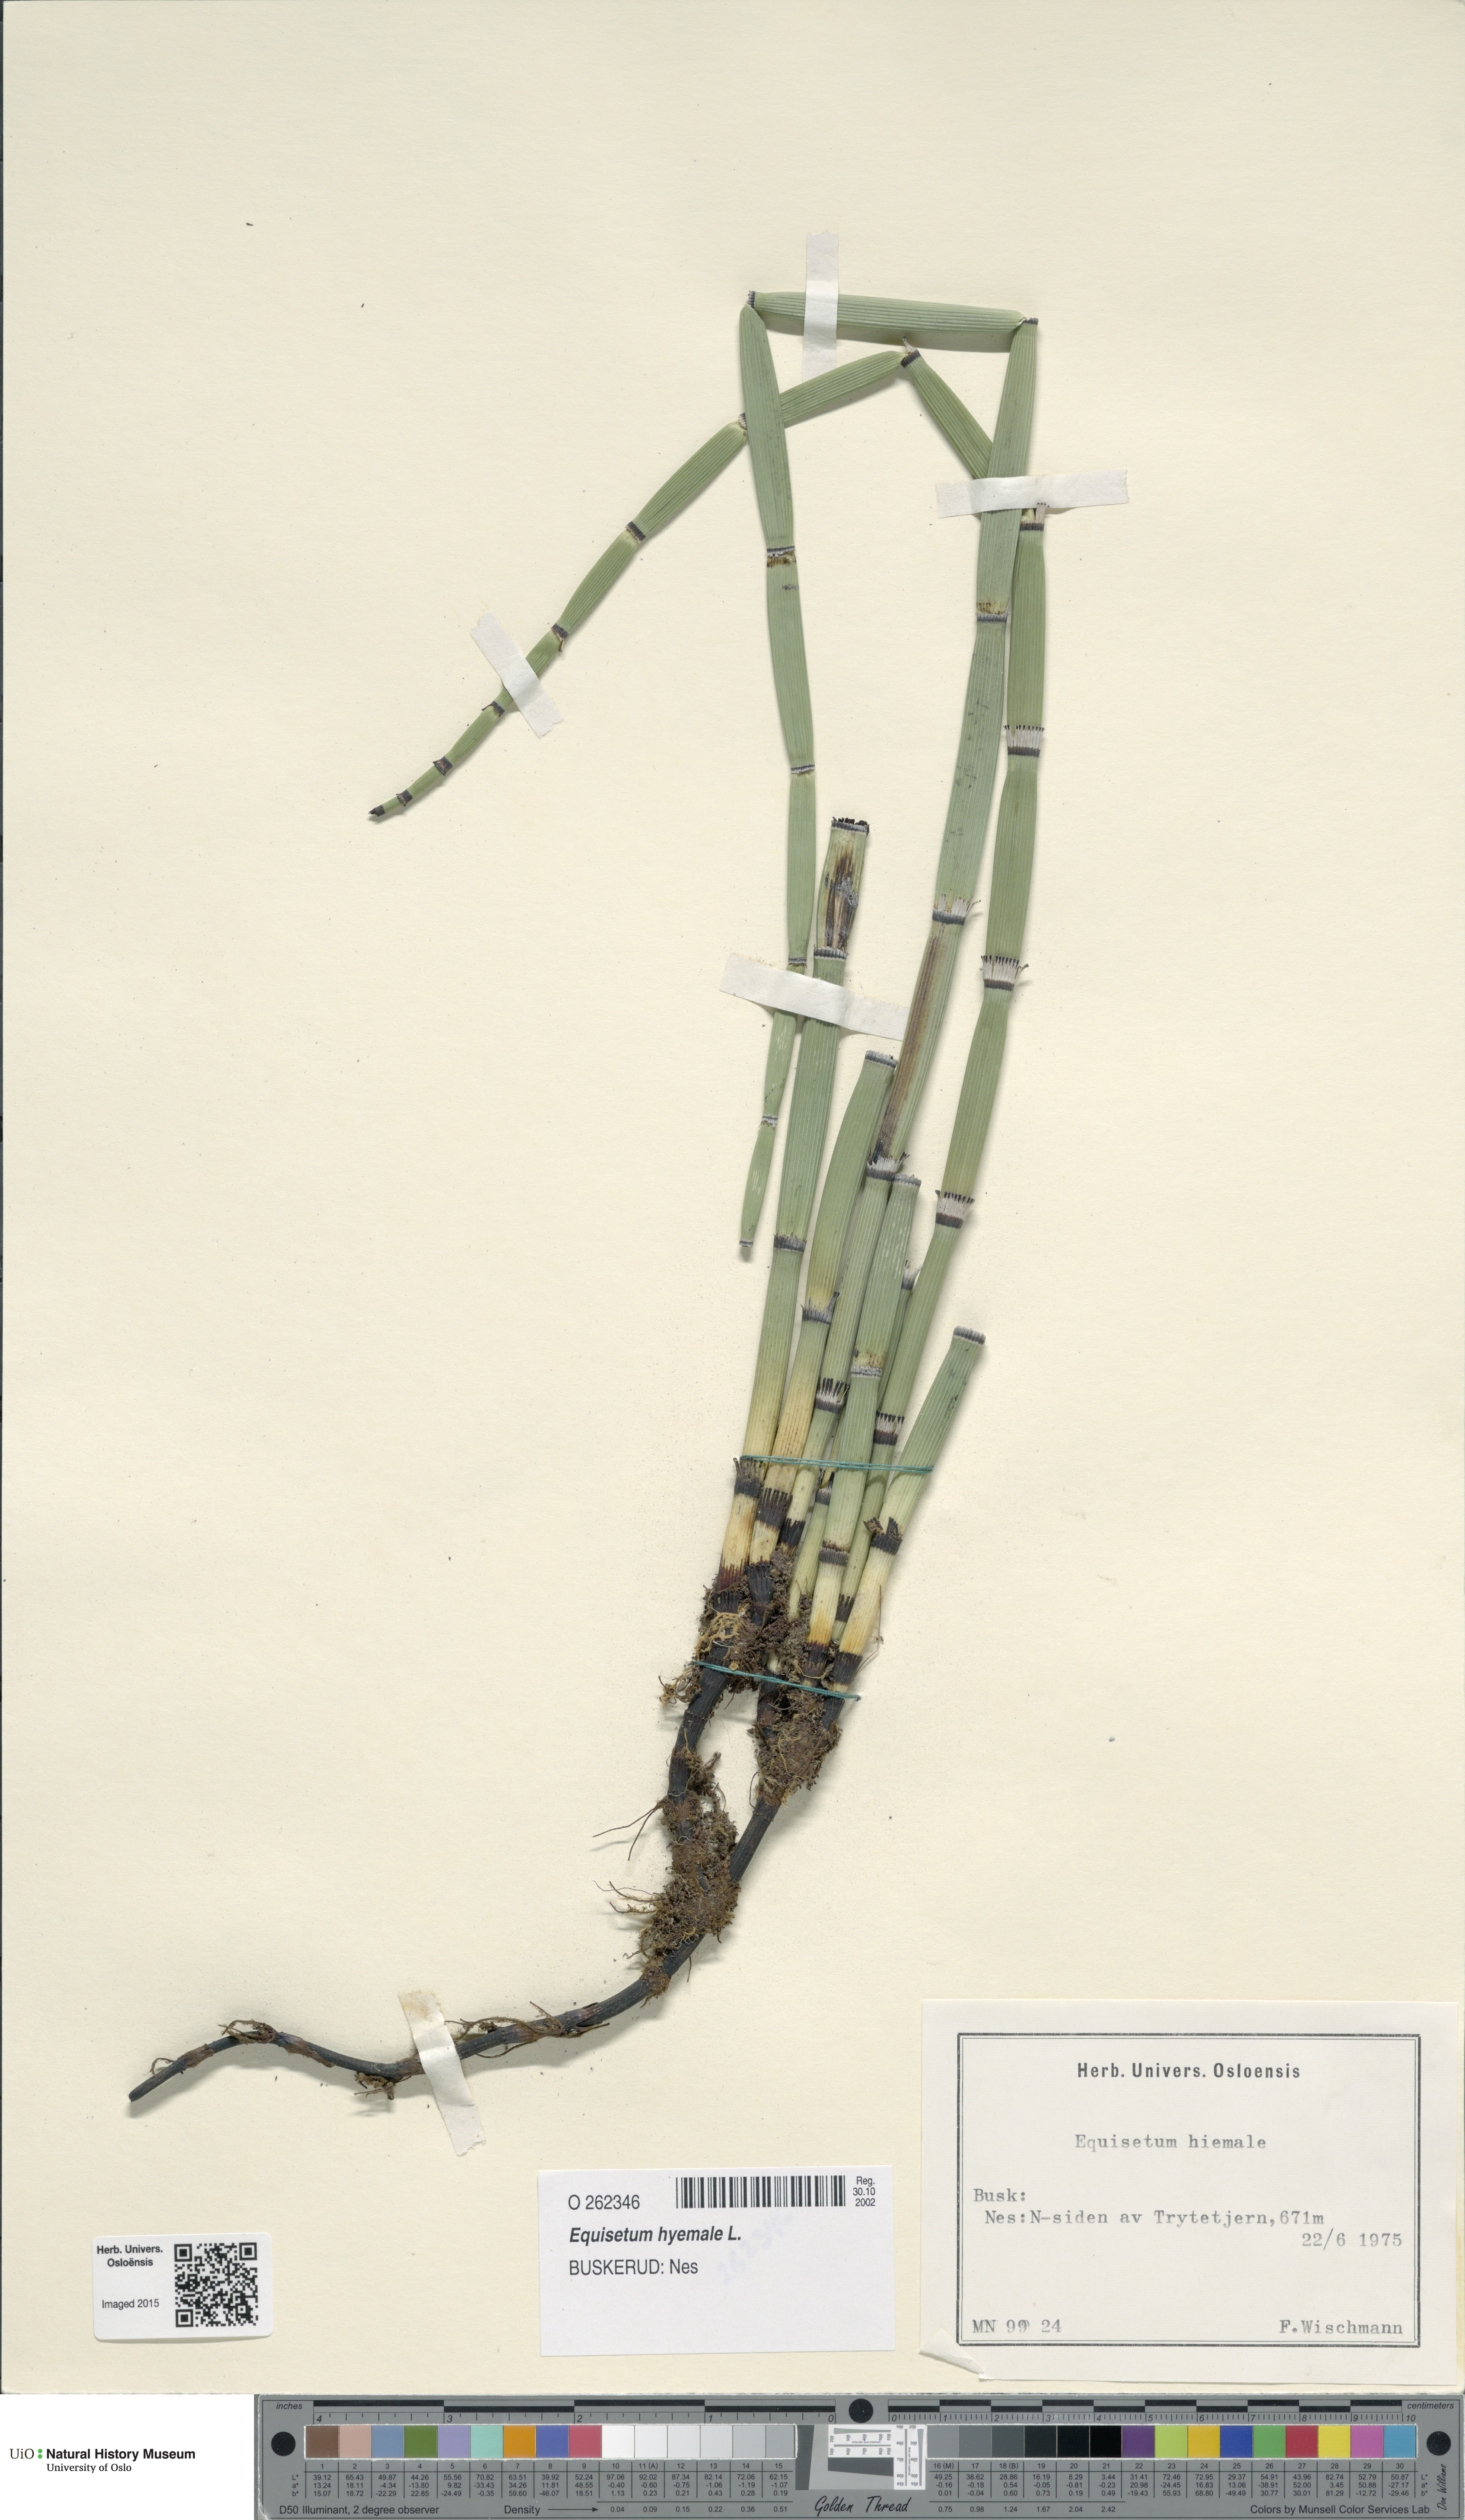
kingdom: Plantae
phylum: Tracheophyta
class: Polypodiopsida
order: Equisetales
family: Equisetaceae
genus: Equisetum
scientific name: Equisetum hyemale
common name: Rough horsetail
